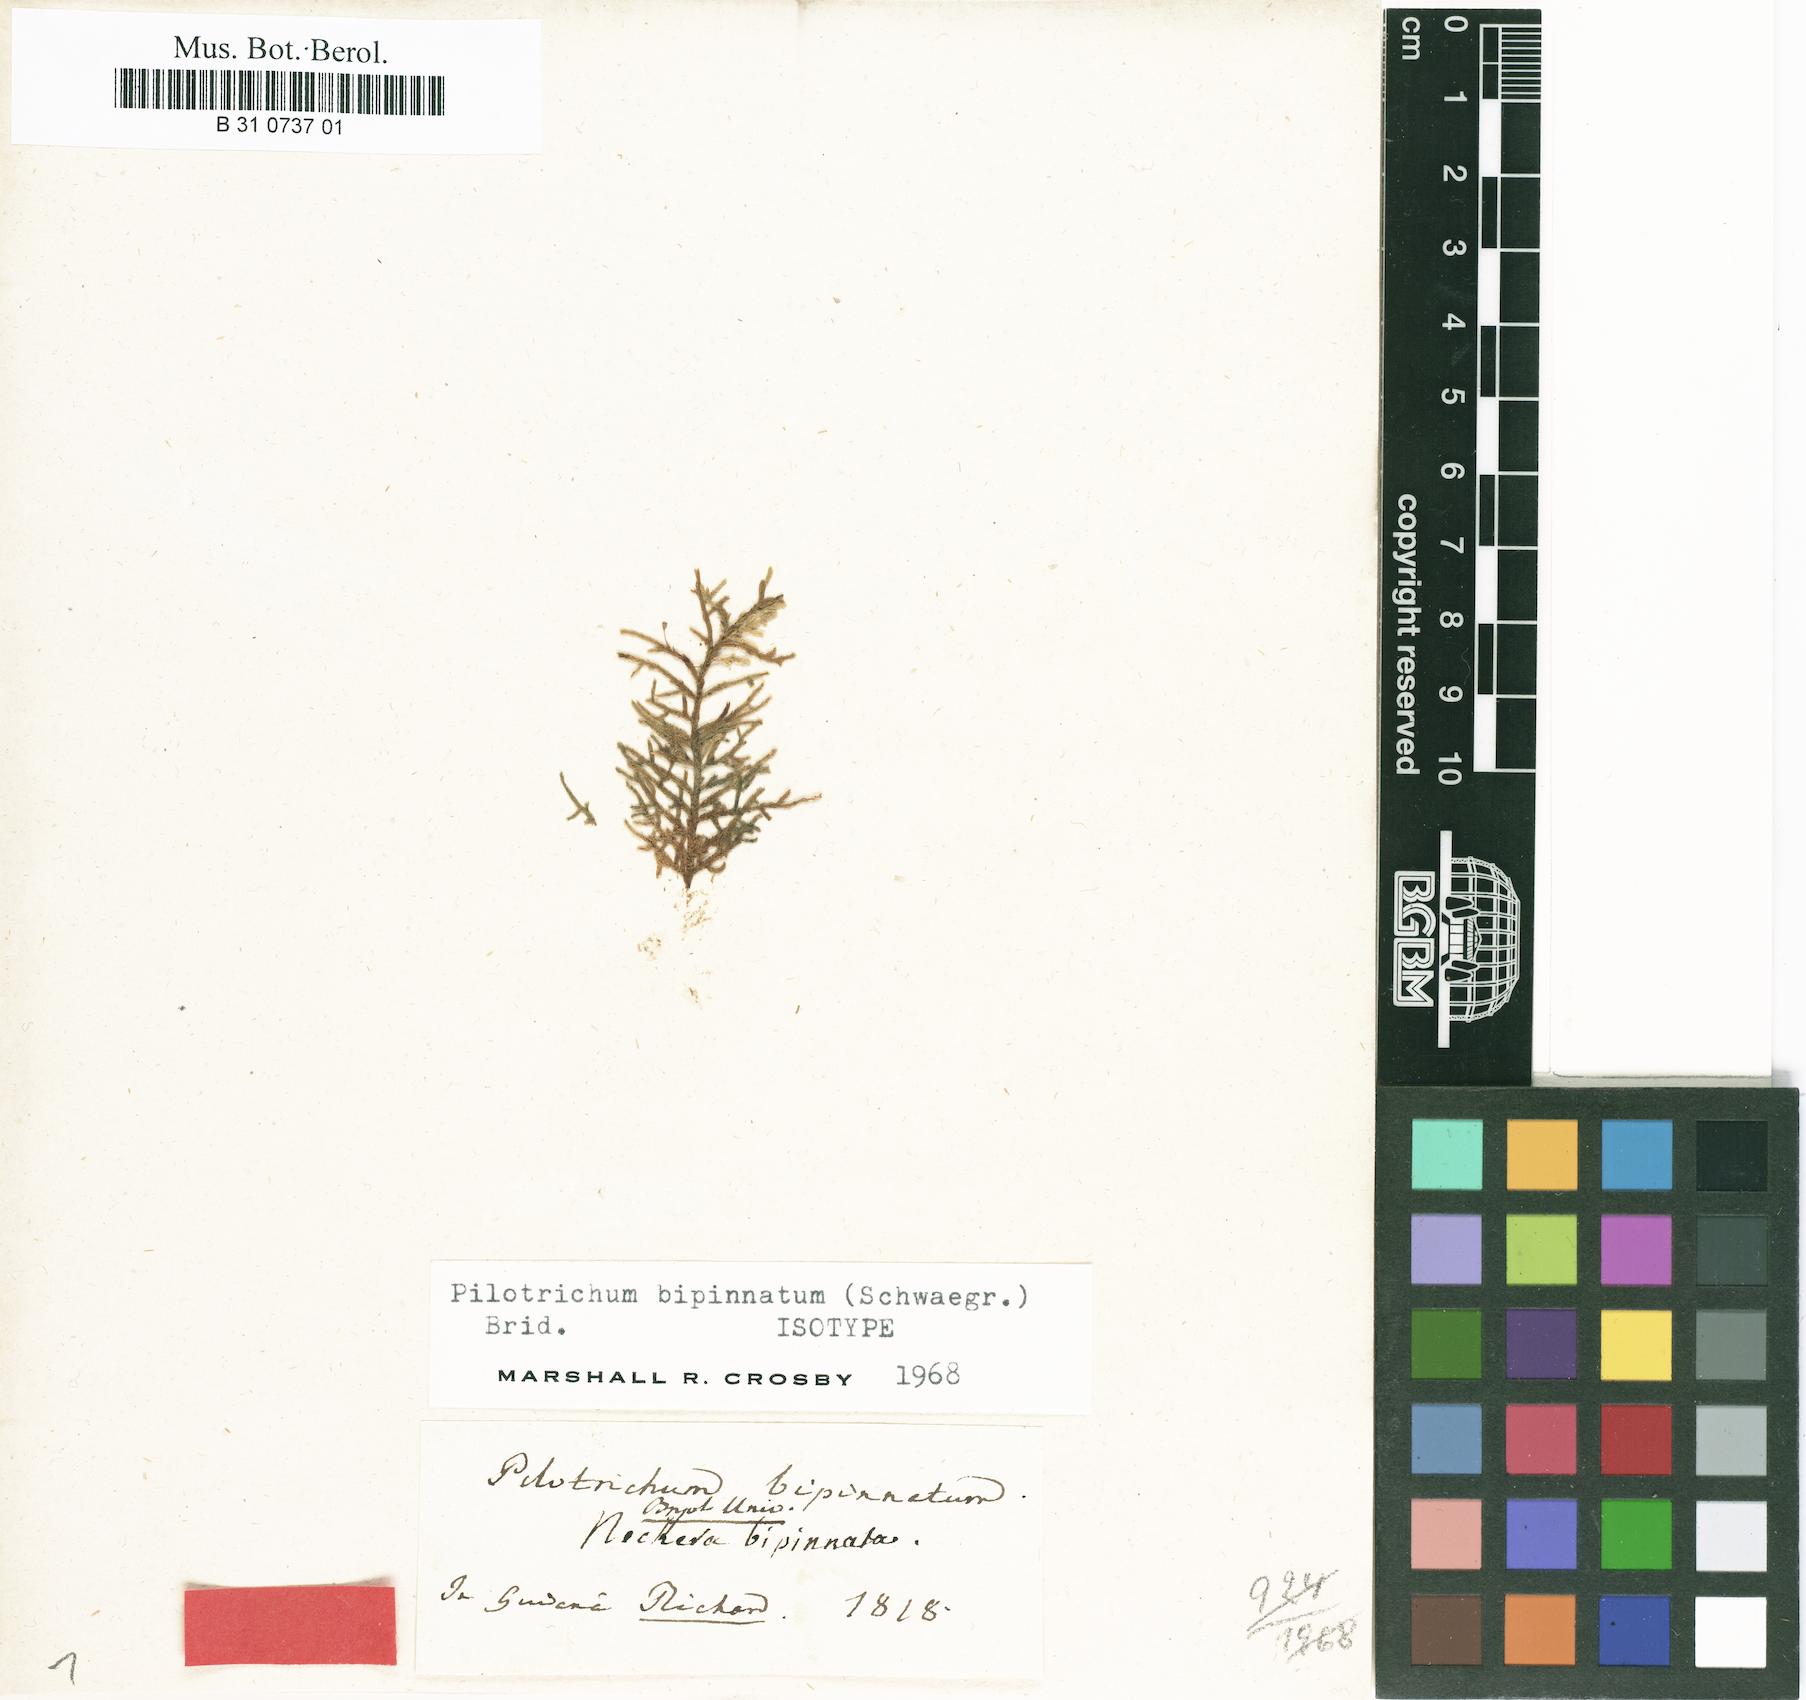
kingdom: Plantae
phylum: Bryophyta
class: Bryopsida
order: Hookeriales
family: Pilotrichaceae
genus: Pilotrichum
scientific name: Pilotrichum bipinnatum
